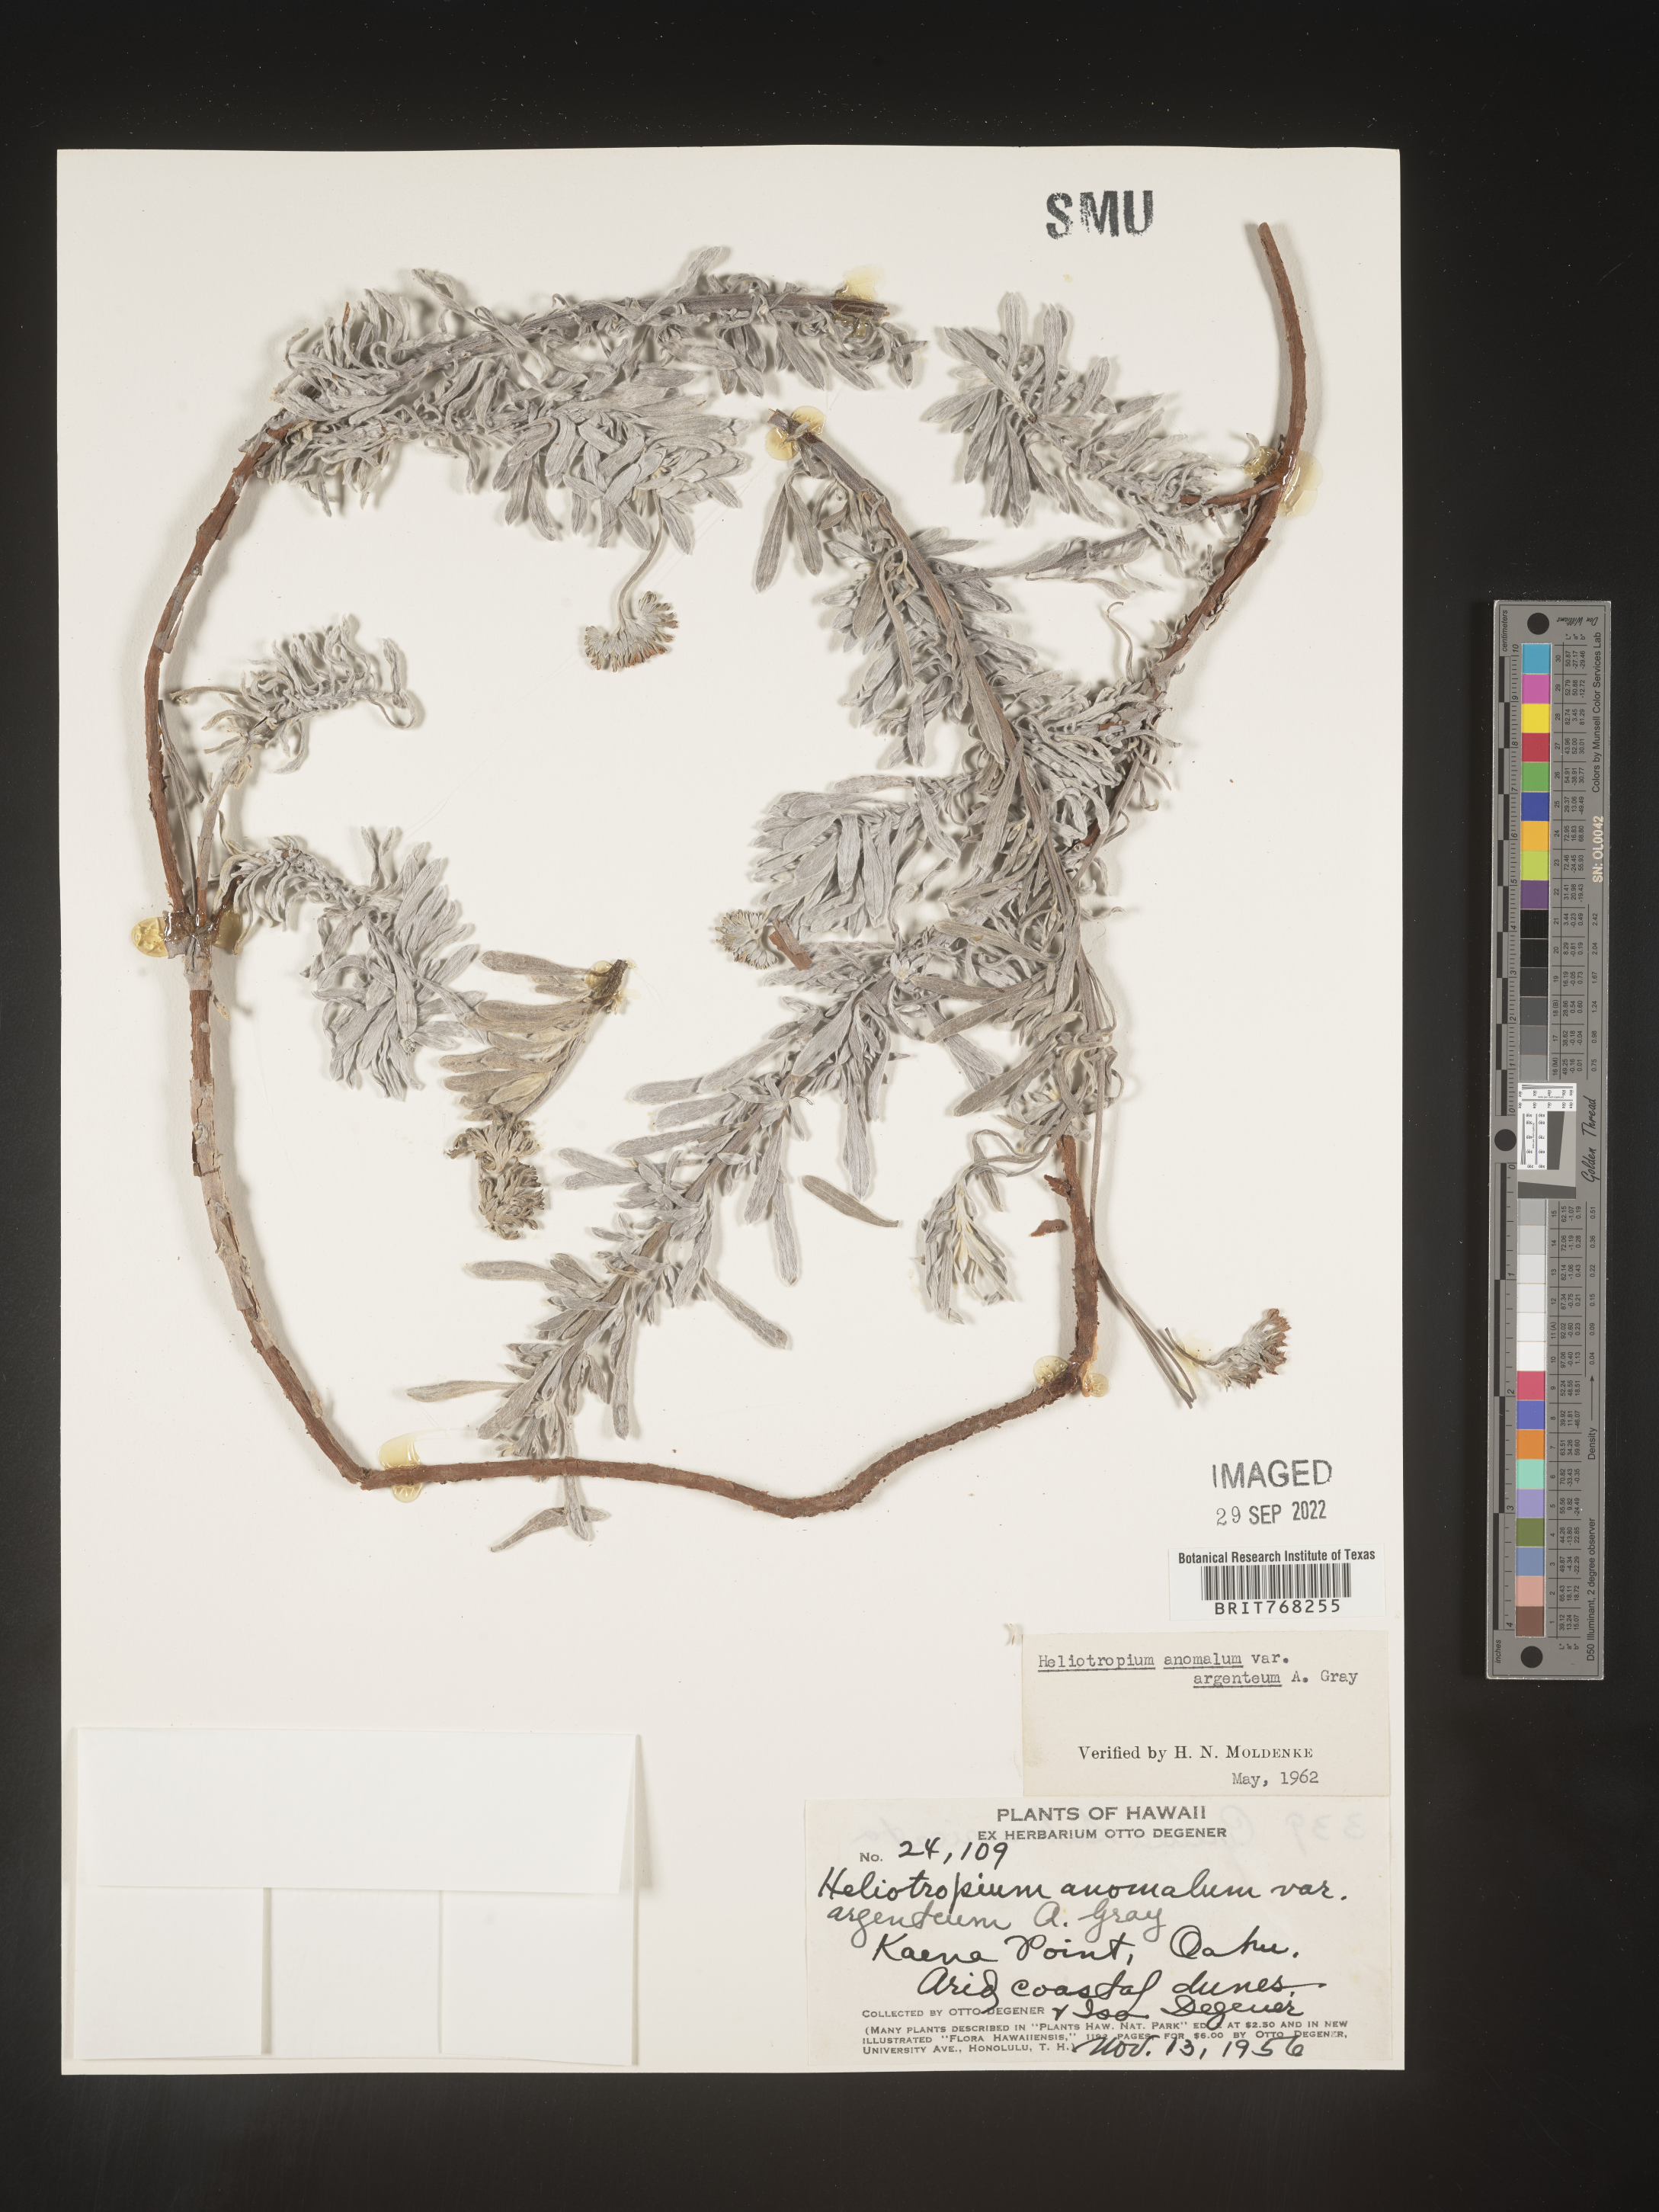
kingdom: Plantae
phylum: Tracheophyta
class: Magnoliopsida
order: Boraginales
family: Heliotropiaceae
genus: Heliotropium
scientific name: Heliotropium
